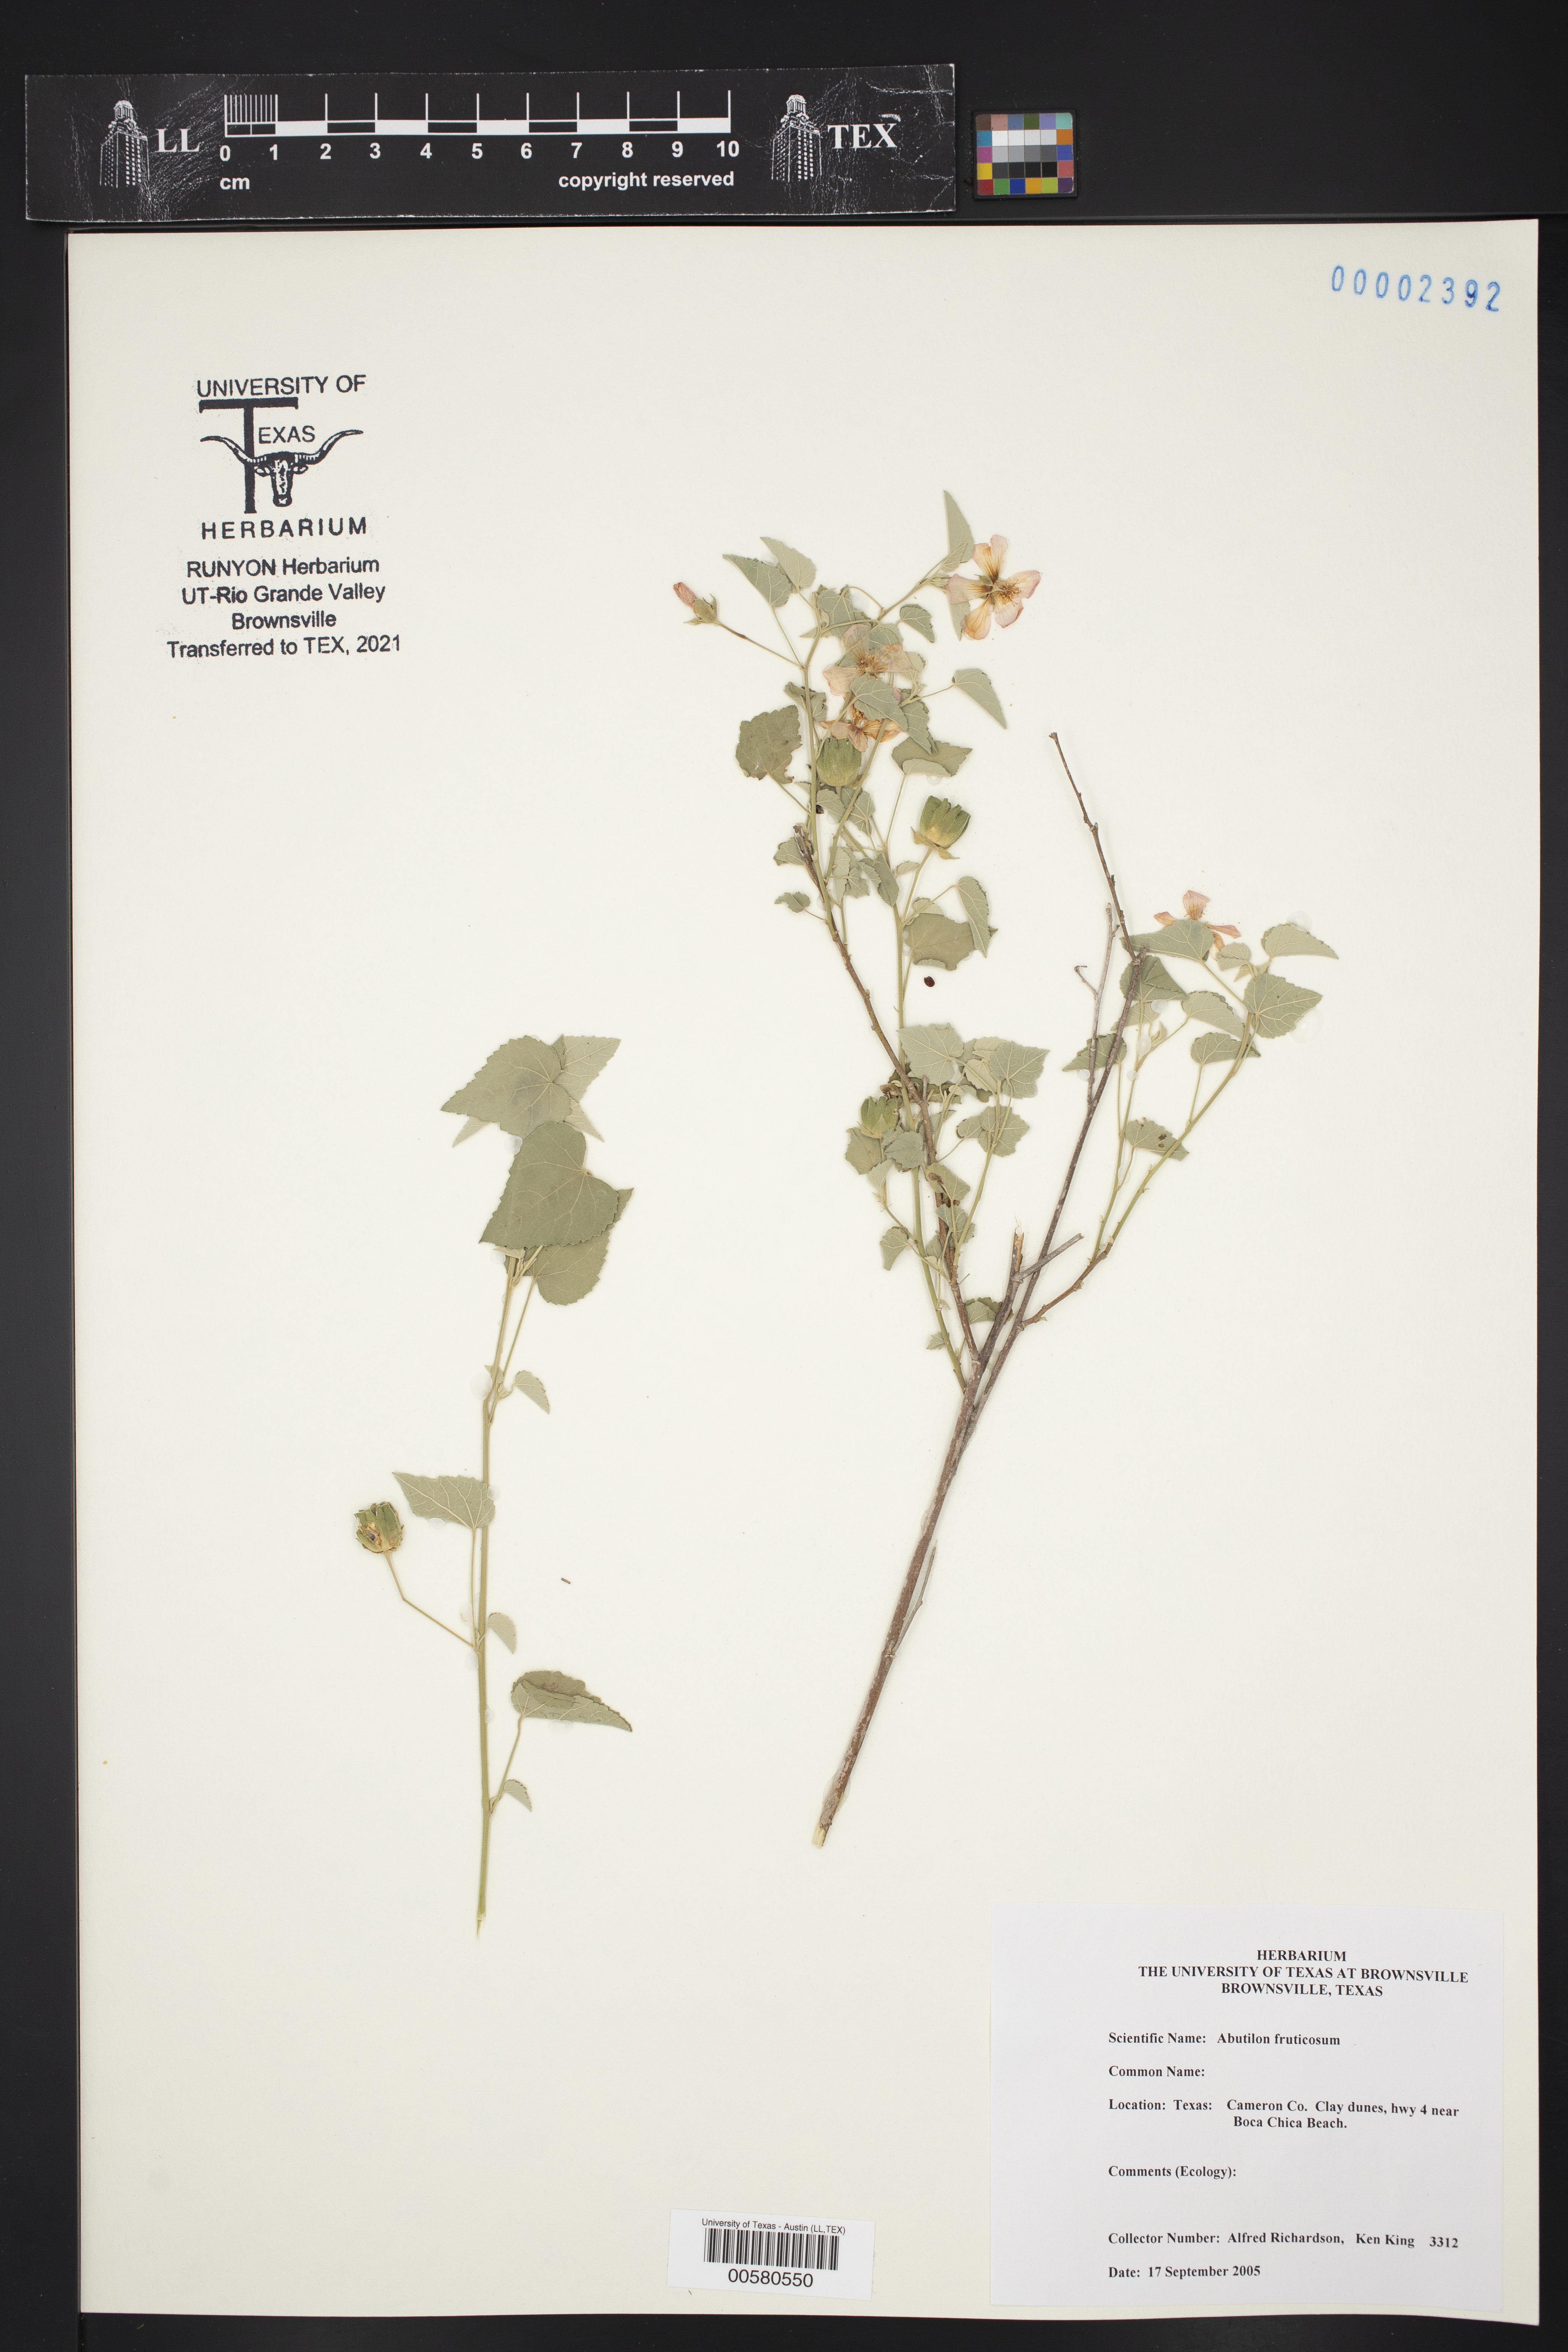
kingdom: Plantae
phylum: Tracheophyta
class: Magnoliopsida
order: Malvales
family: Malvaceae
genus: Abutilon
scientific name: Abutilon fruticosum
